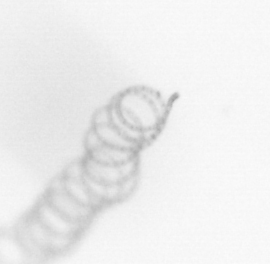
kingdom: Chromista
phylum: Ochrophyta
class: Bacillariophyceae
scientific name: Bacillariophyceae
